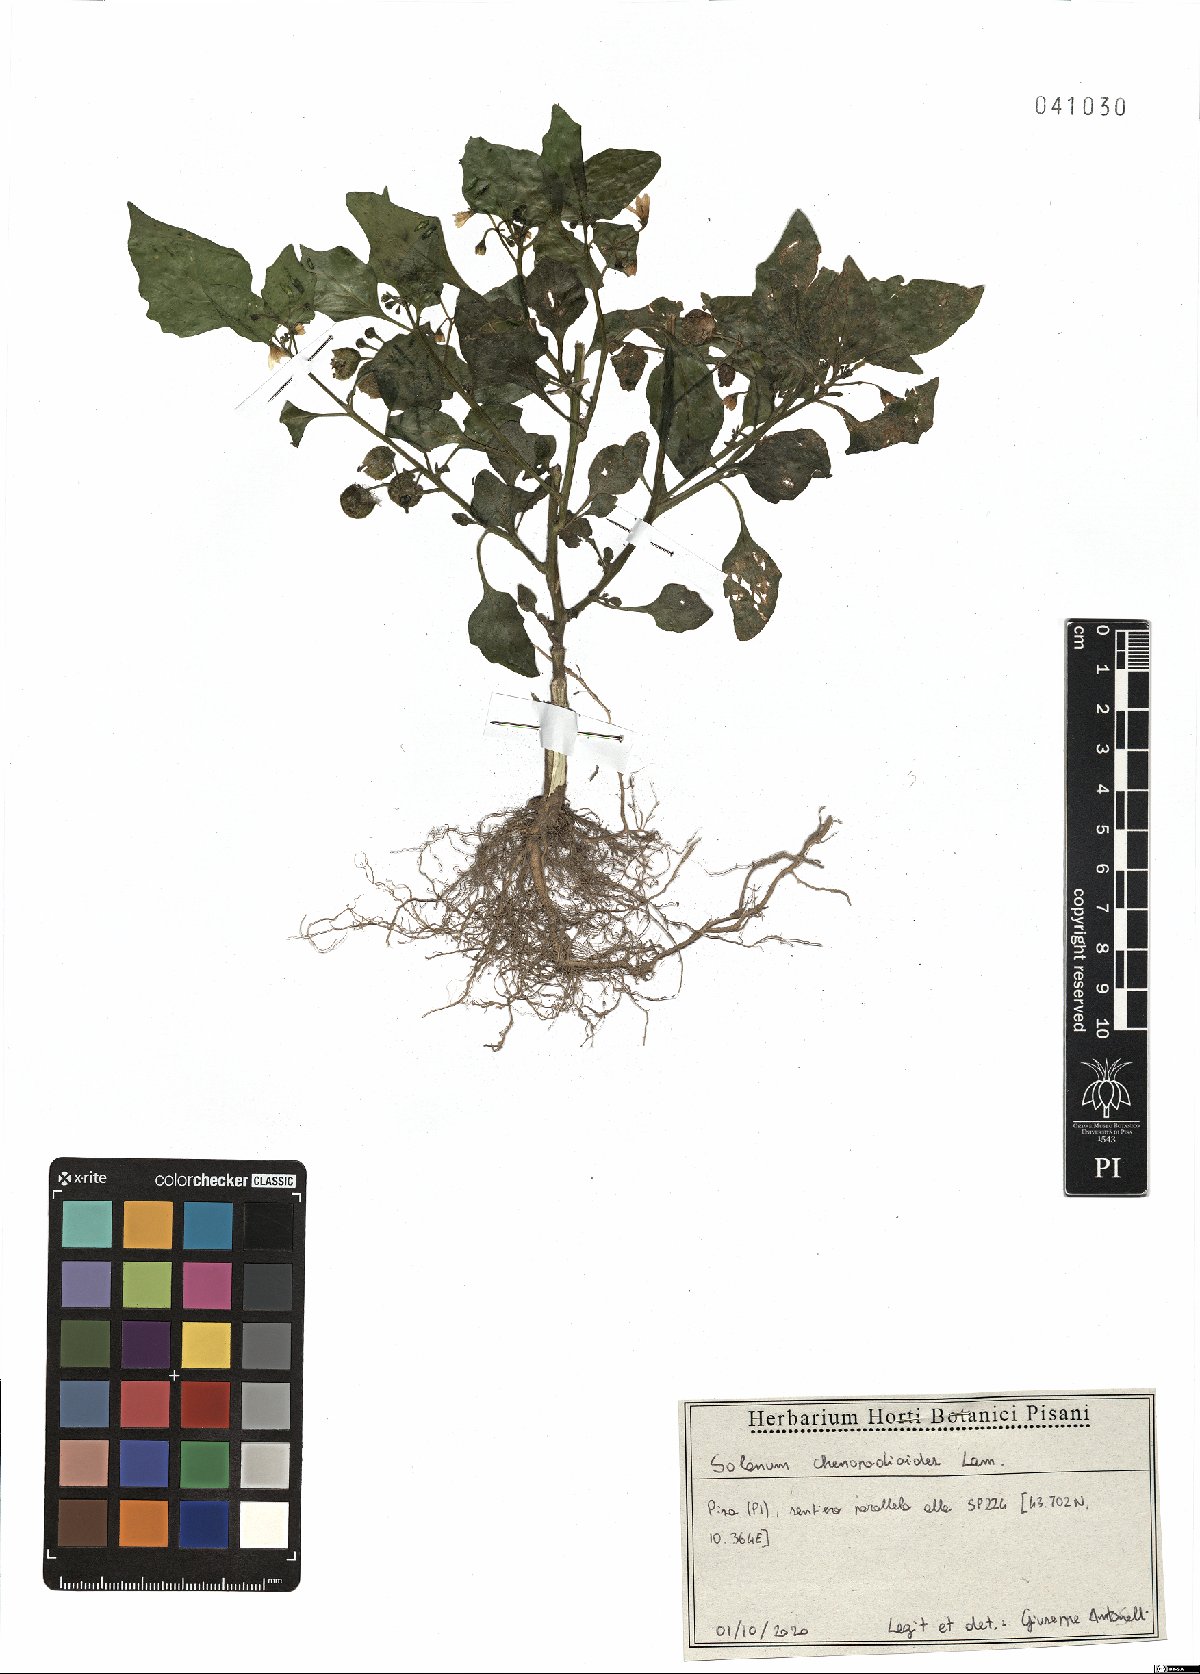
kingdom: Plantae
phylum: Tracheophyta
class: Magnoliopsida
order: Solanales
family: Solanaceae
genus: Solanum
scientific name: Solanum chenopodioides
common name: Tall nightshade
